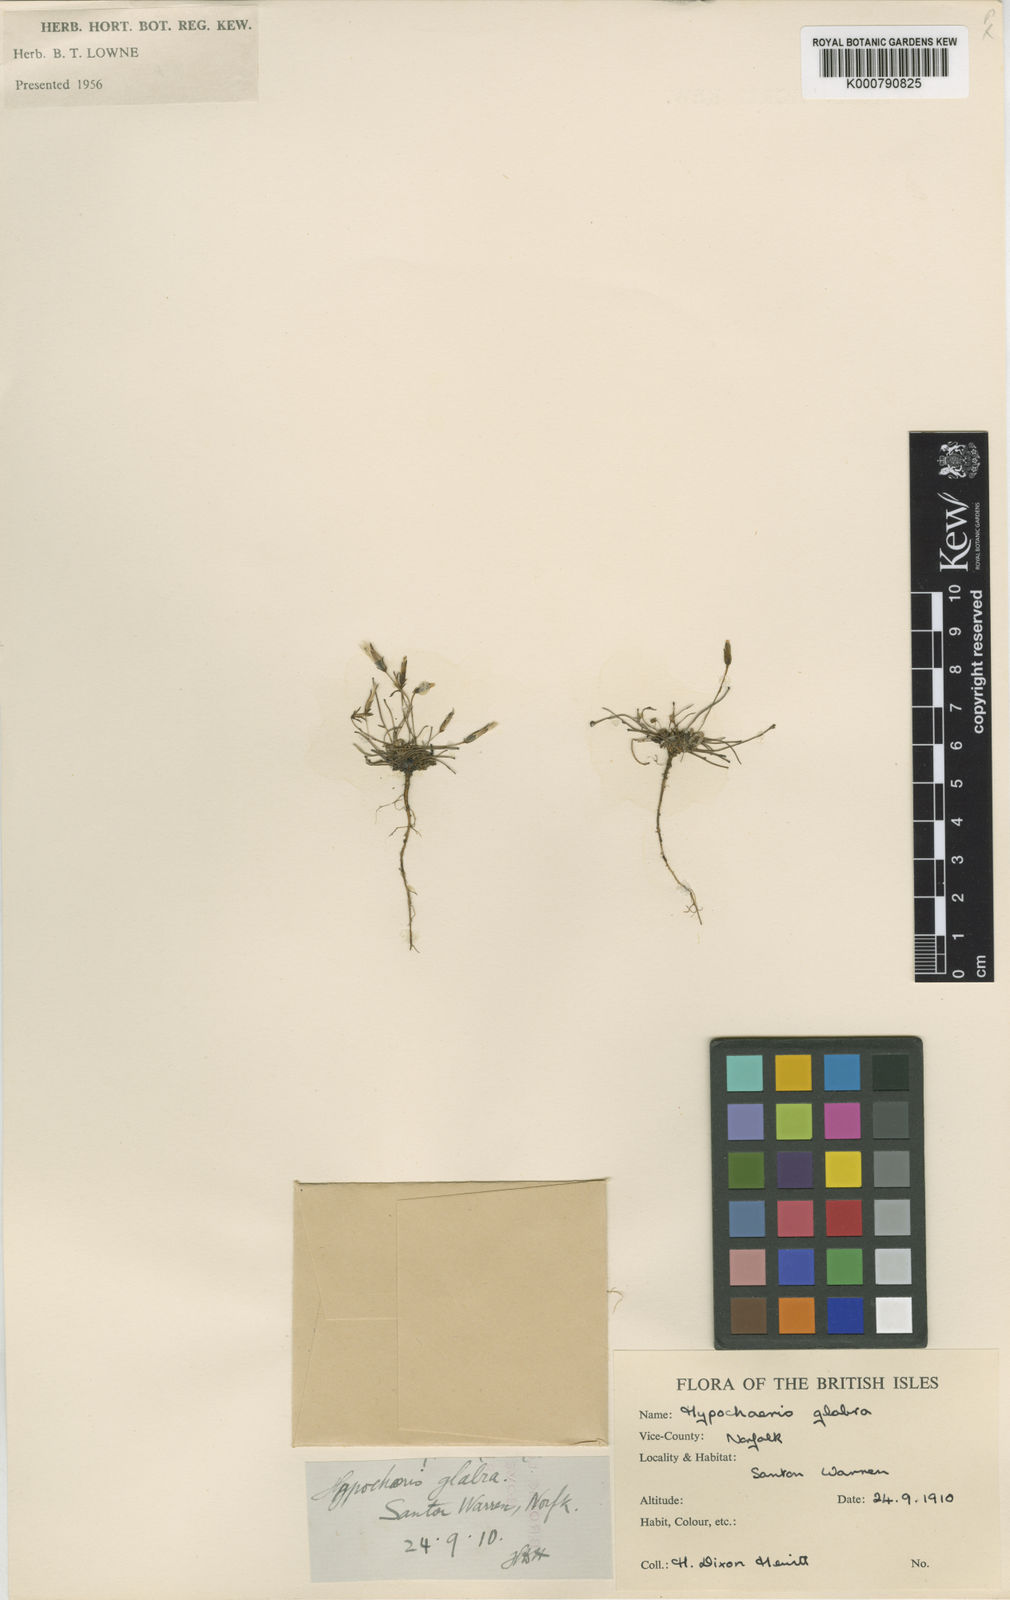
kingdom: Plantae
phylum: Tracheophyta
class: Magnoliopsida
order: Asterales
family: Asteraceae
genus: Hypochaeris
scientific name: Hypochaeris glabra
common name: Smooth catsear
